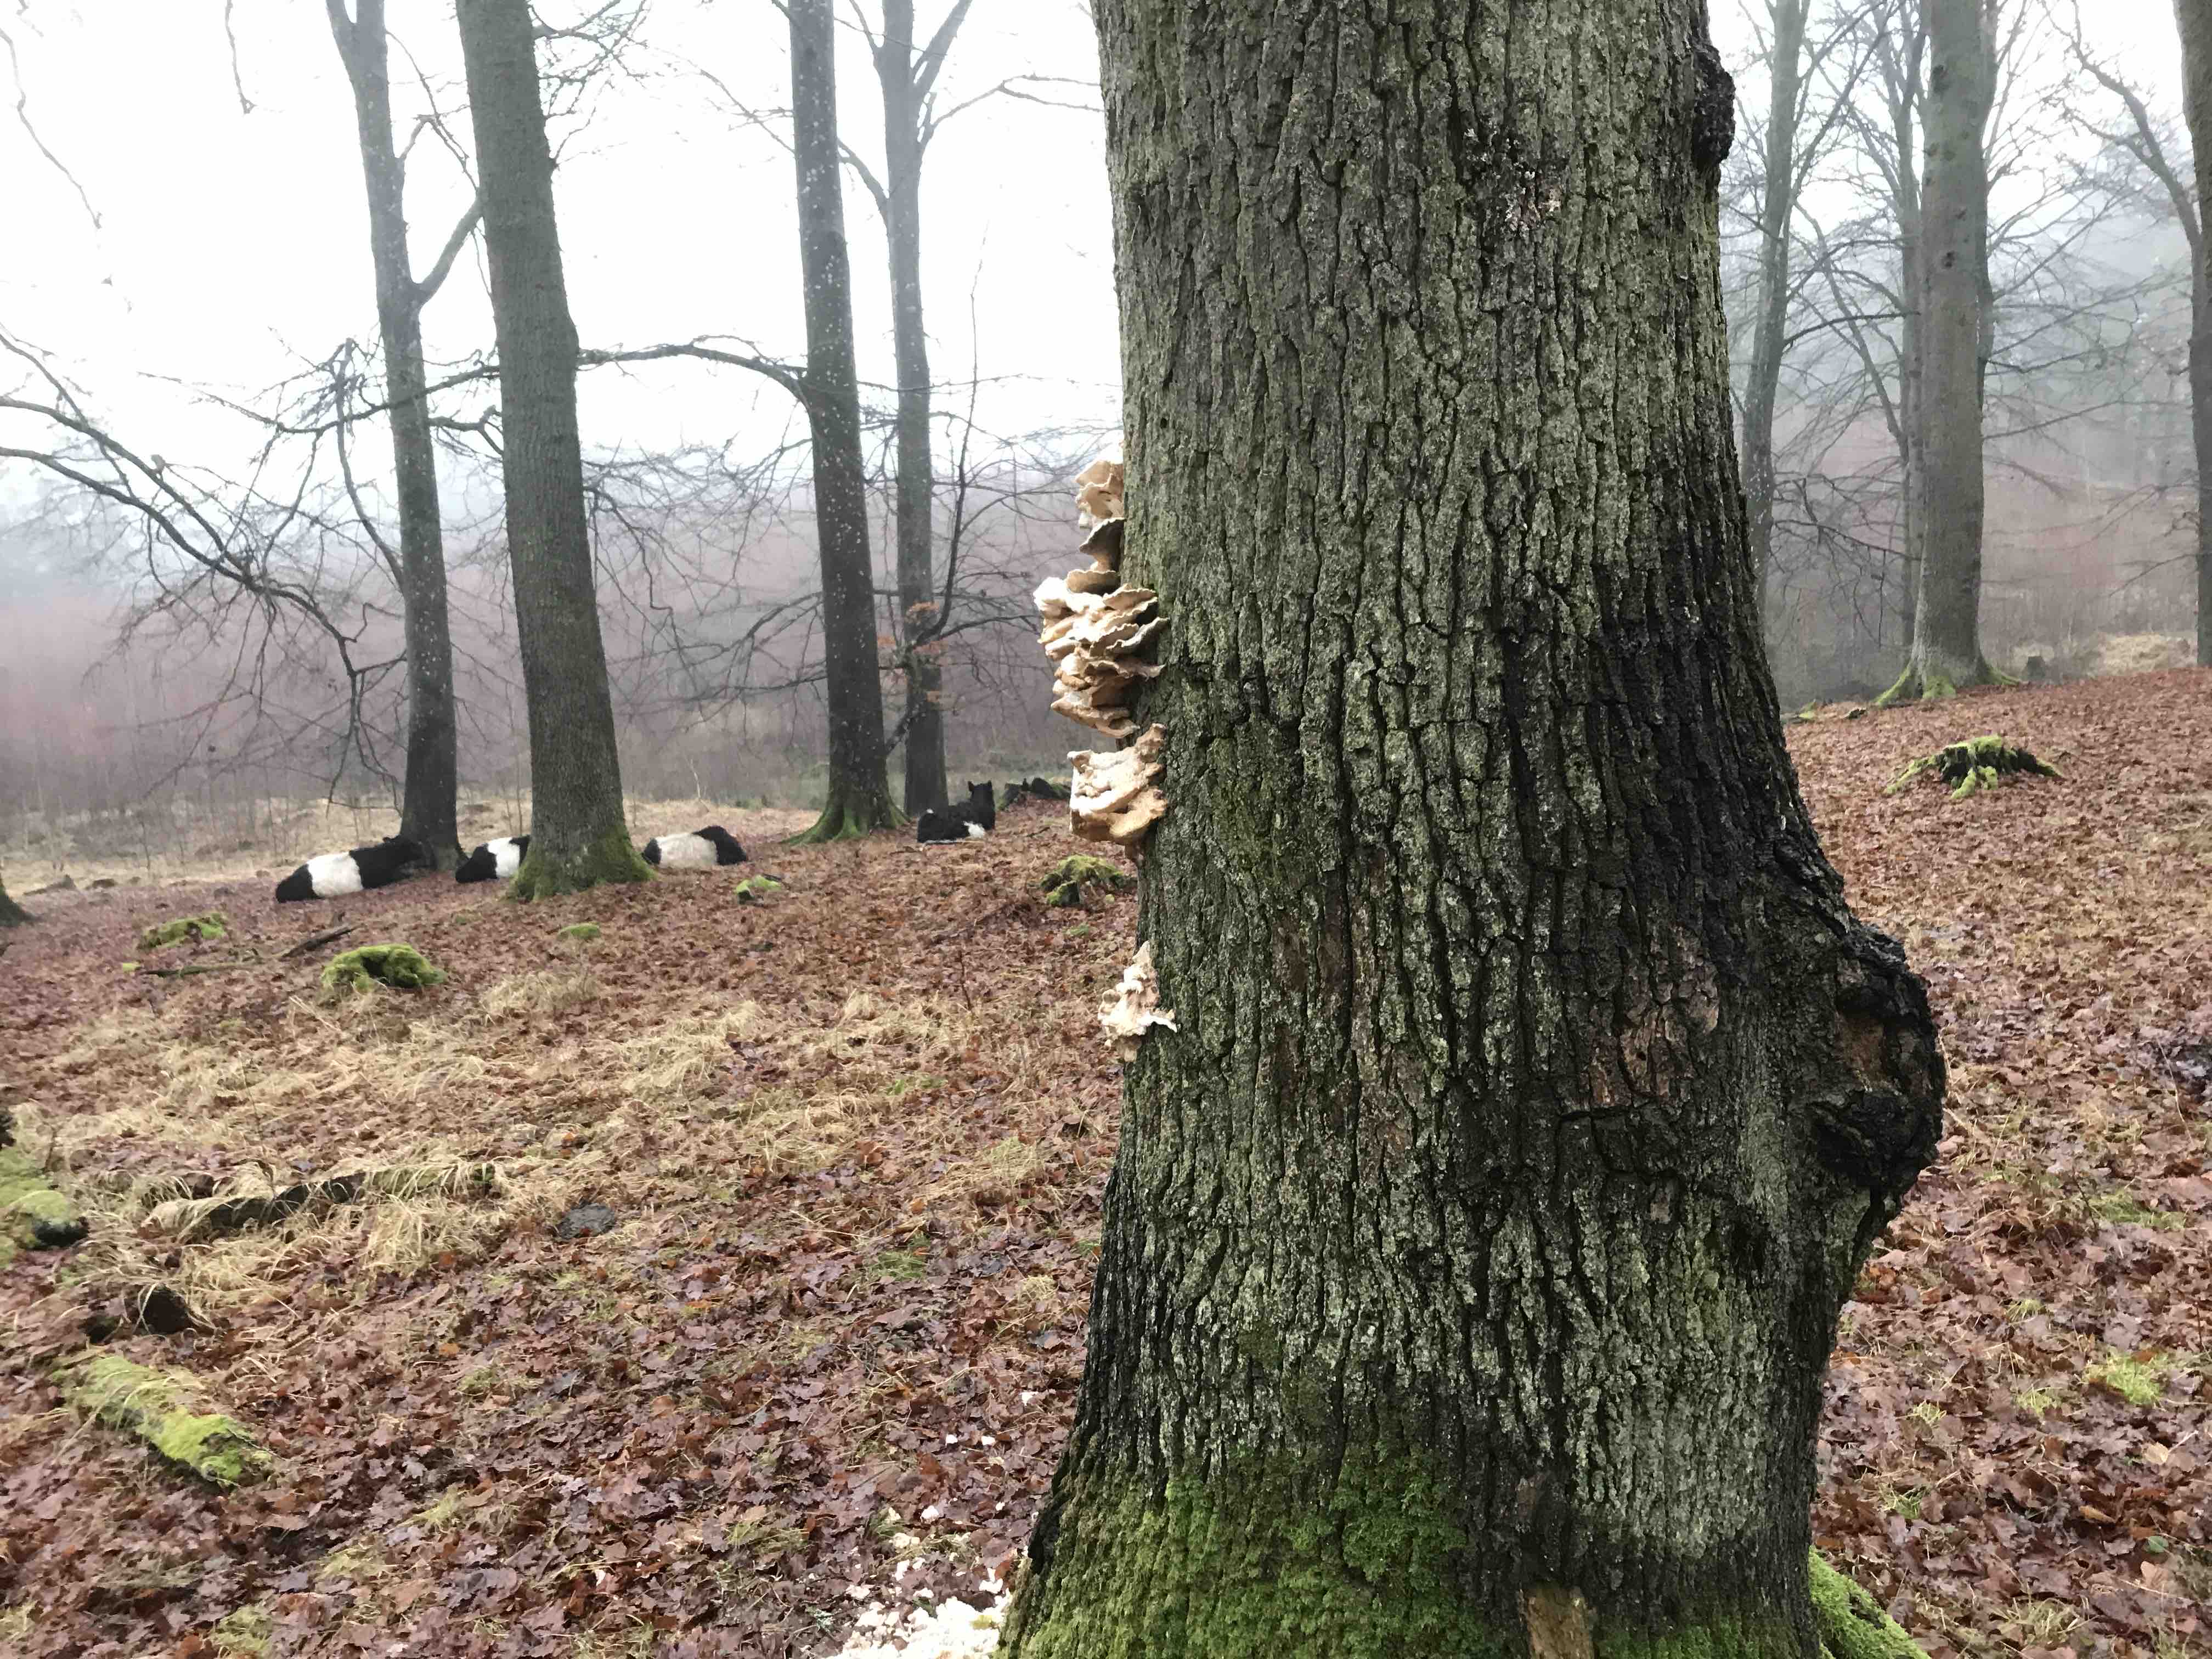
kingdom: Fungi
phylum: Basidiomycota
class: Agaricomycetes
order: Polyporales
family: Laetiporaceae
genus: Laetiporus
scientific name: Laetiporus sulphureus
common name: svovlporesvamp
